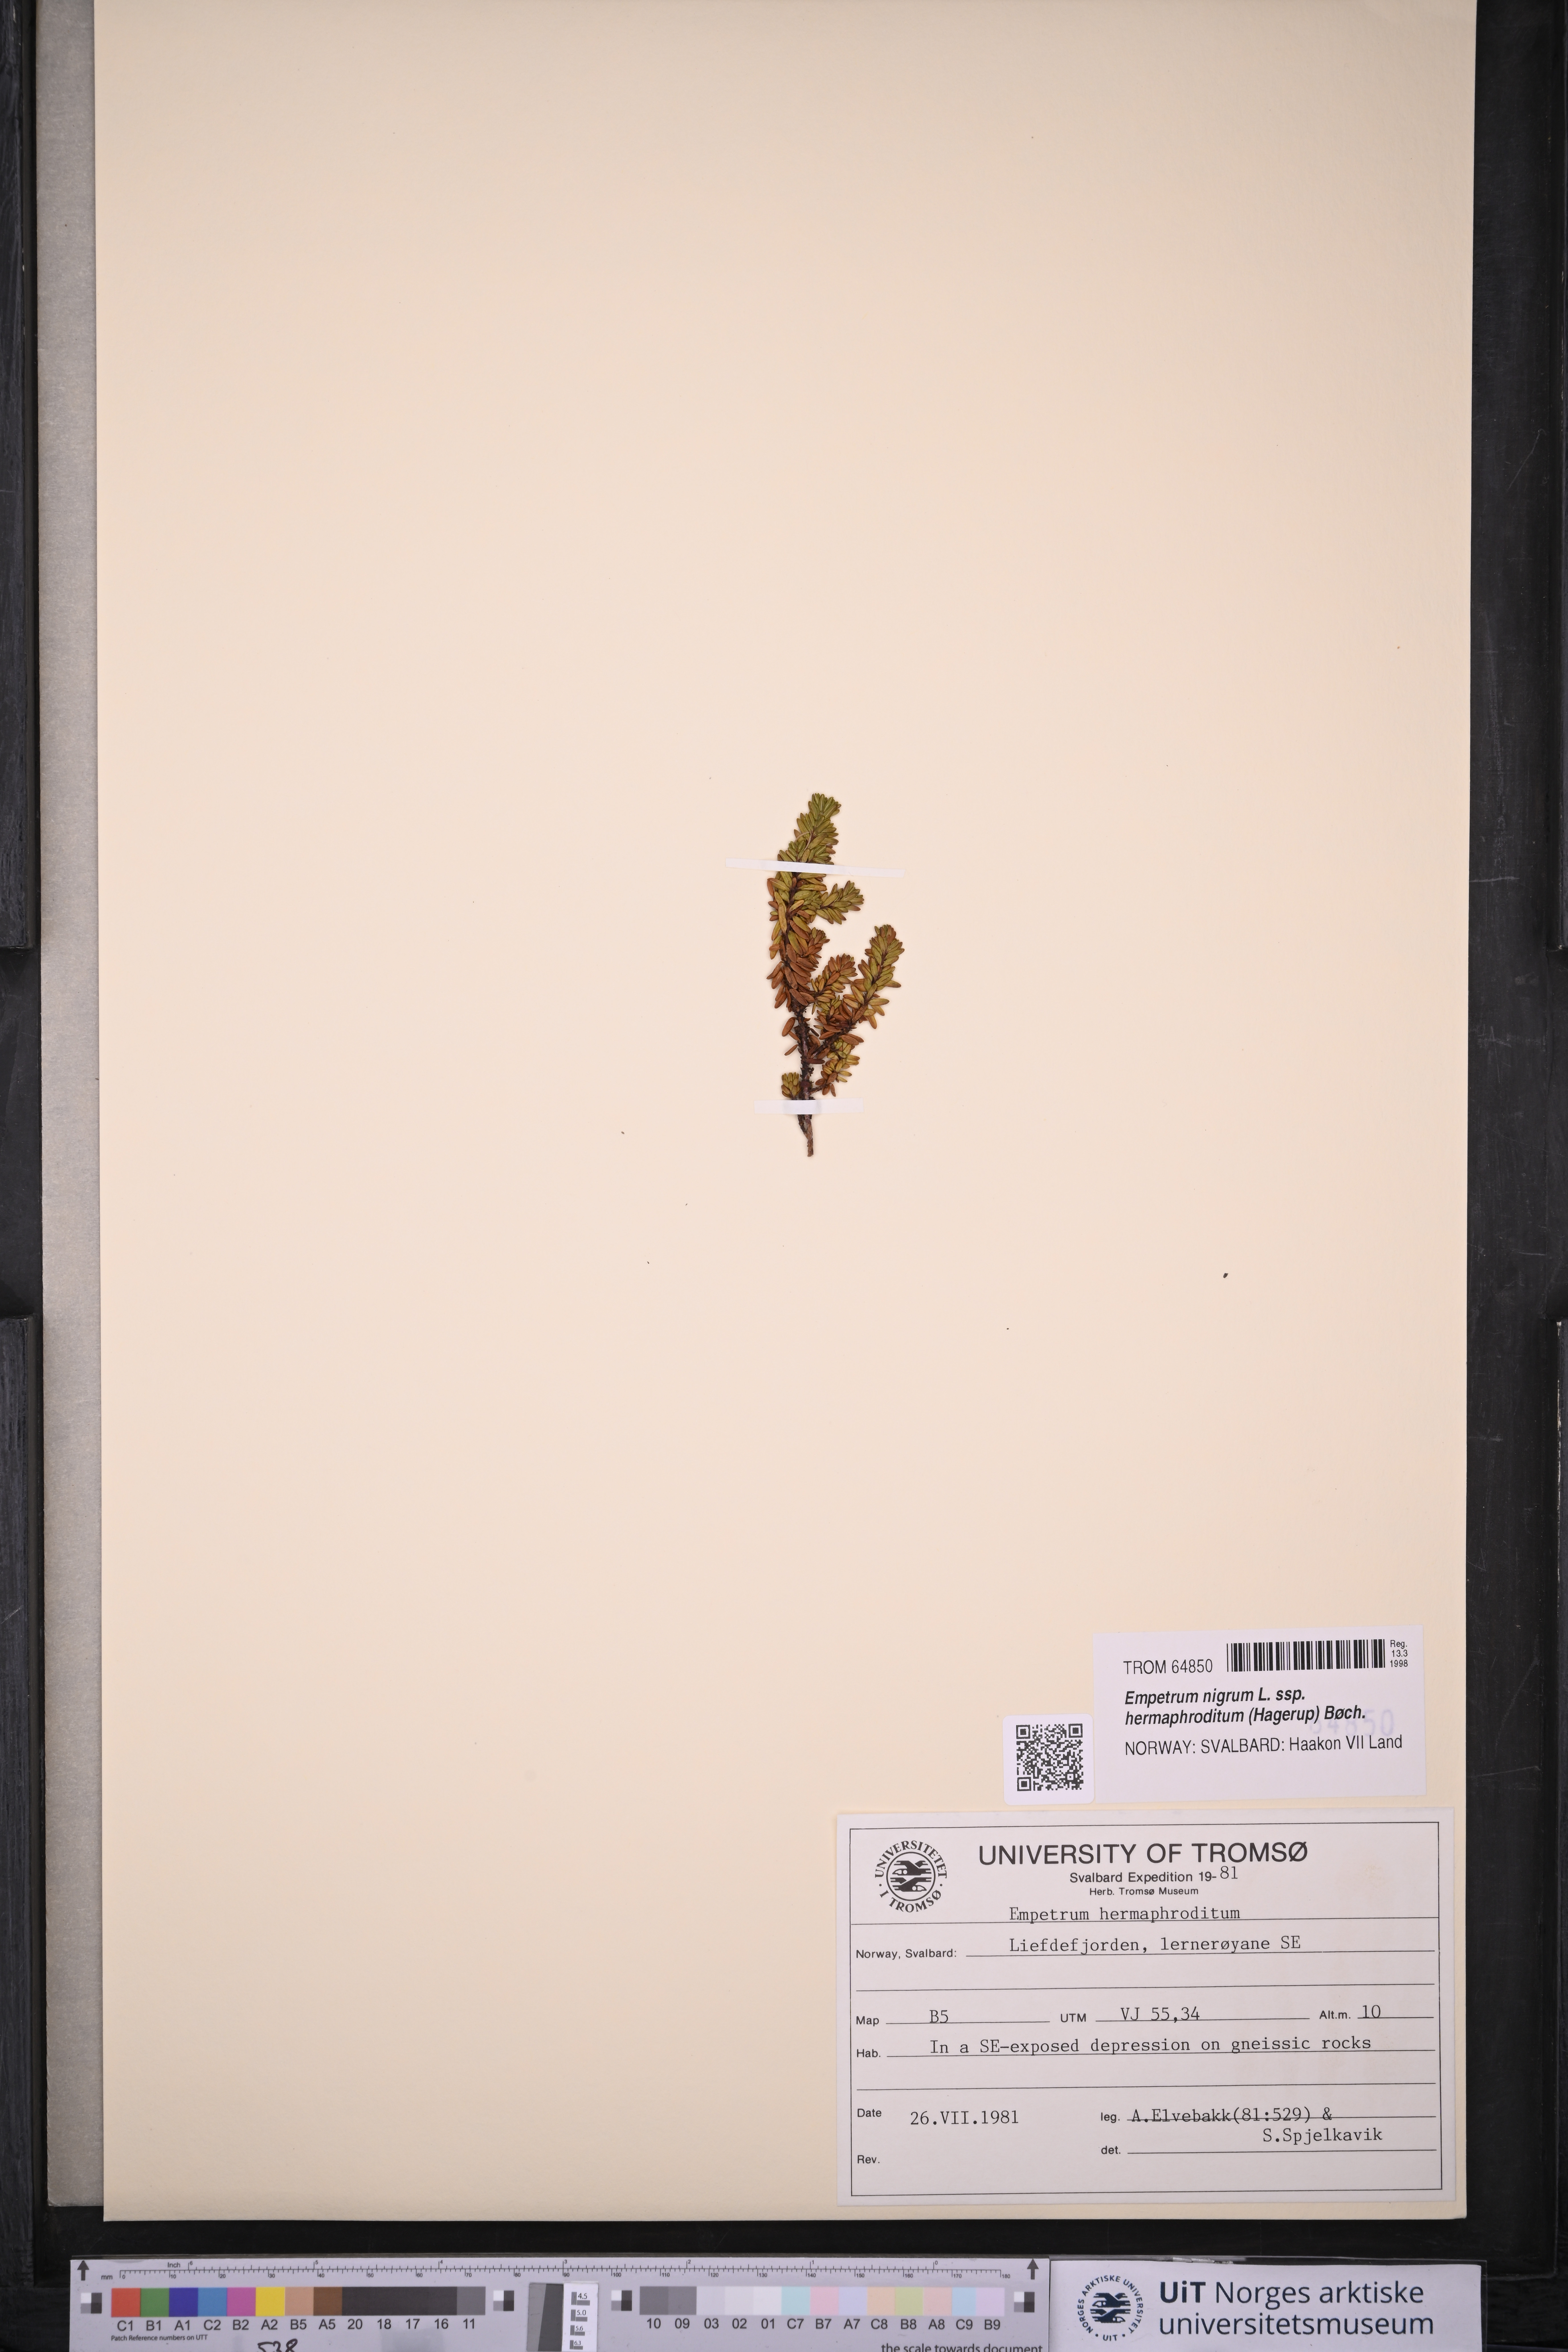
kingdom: Plantae
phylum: Tracheophyta
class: Magnoliopsida
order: Ericales
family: Ericaceae
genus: Empetrum
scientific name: Empetrum hermaphroditum
